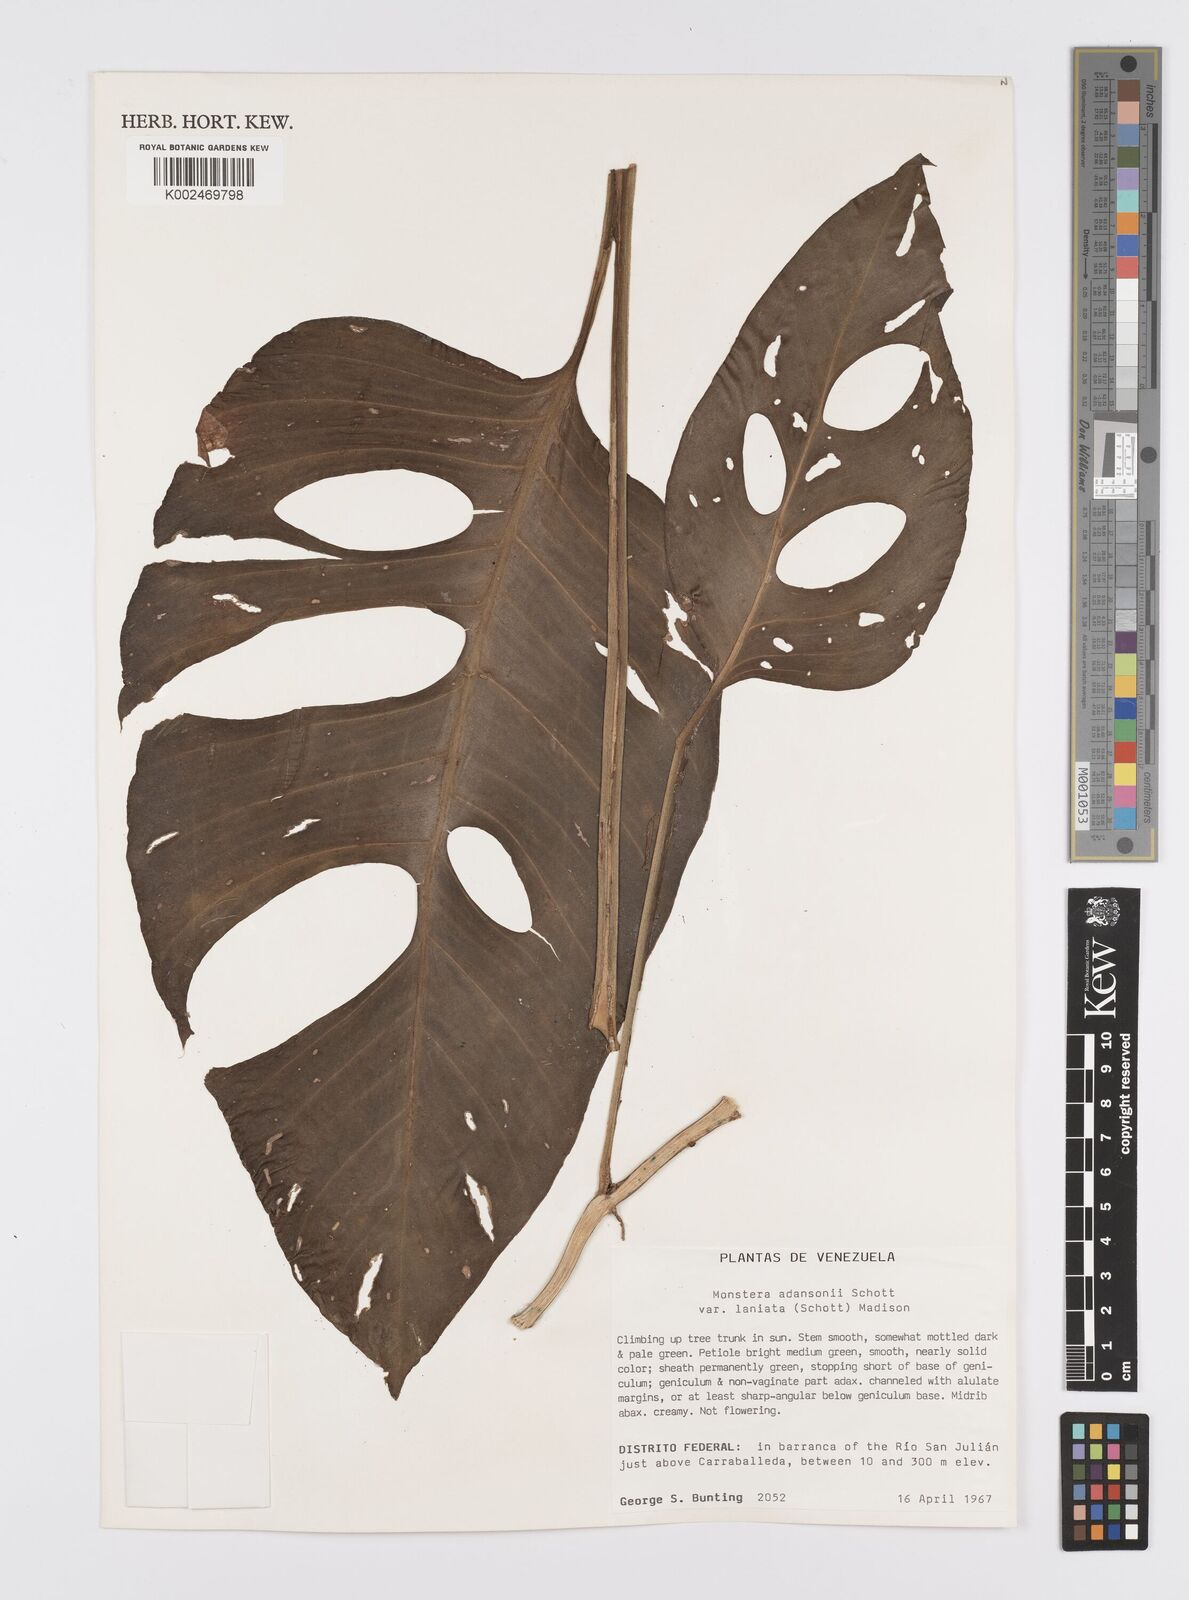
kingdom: Plantae
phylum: Tracheophyta
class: Liliopsida
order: Alismatales
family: Araceae
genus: Monstera
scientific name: Monstera adansonii
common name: Tarovine
